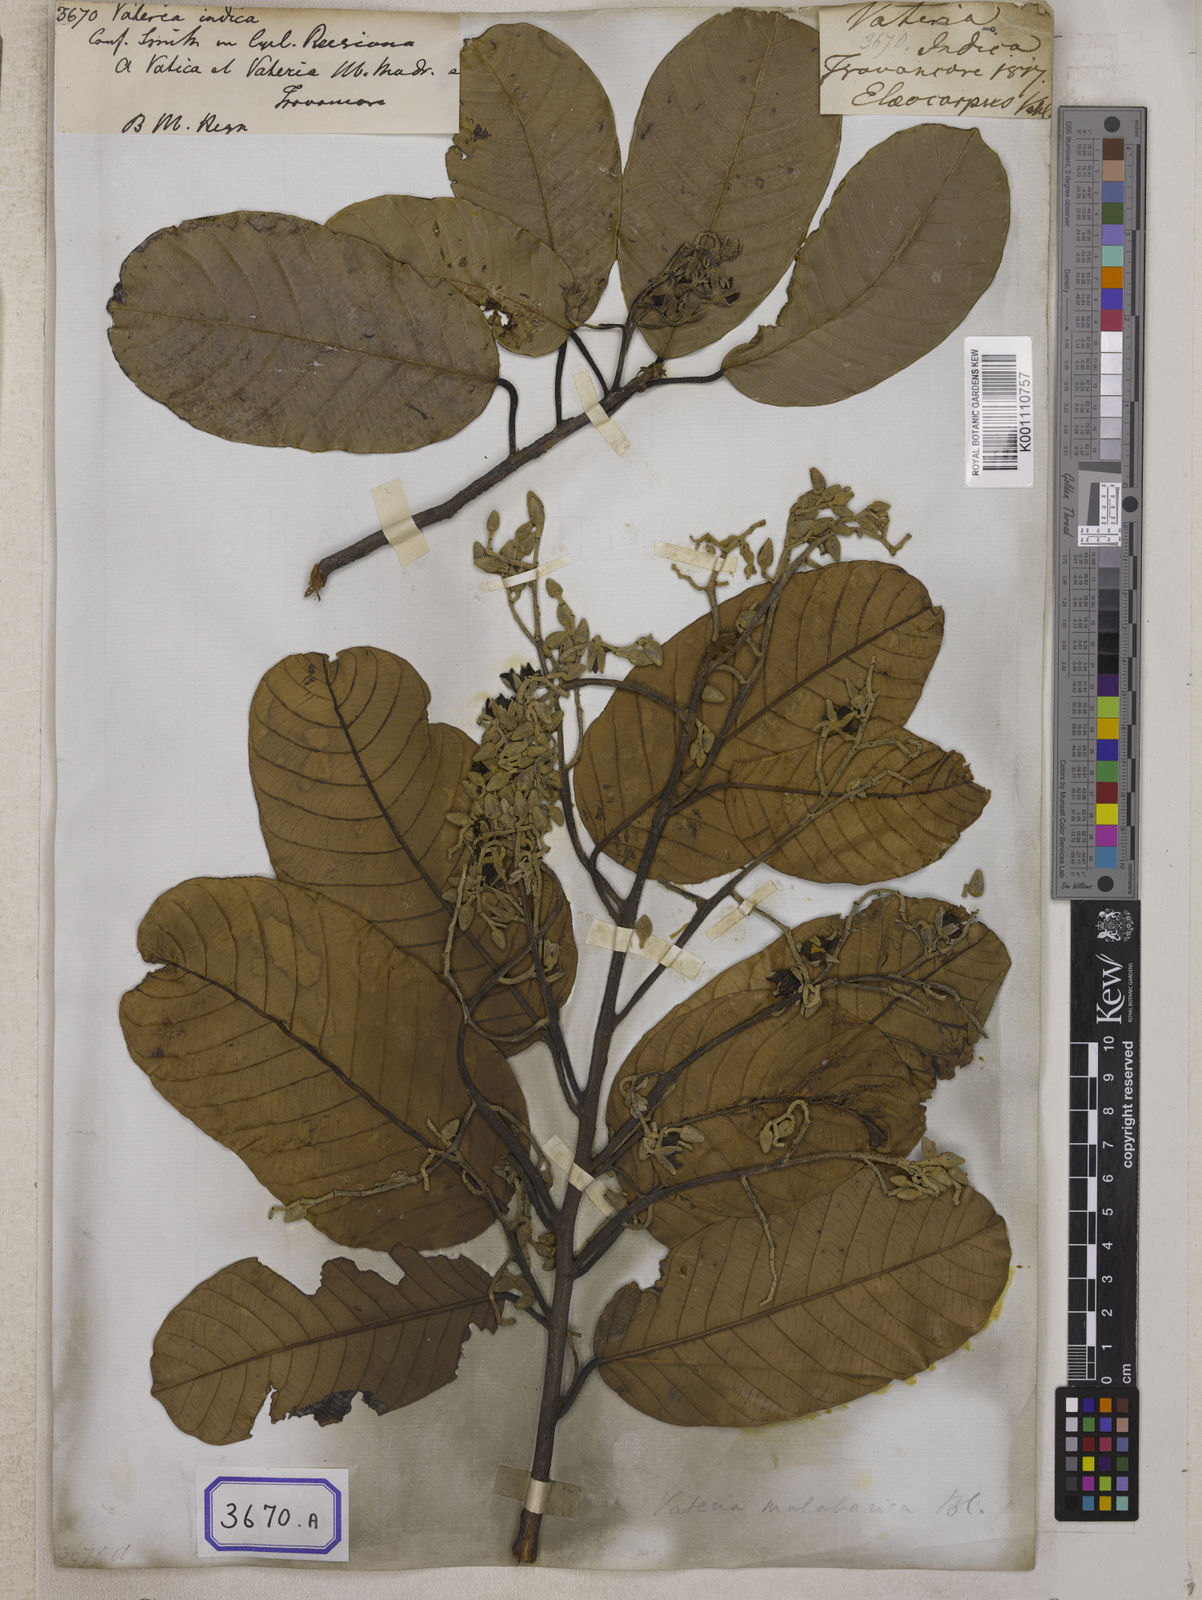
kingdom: Plantae
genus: Valeria
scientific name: Valeria
